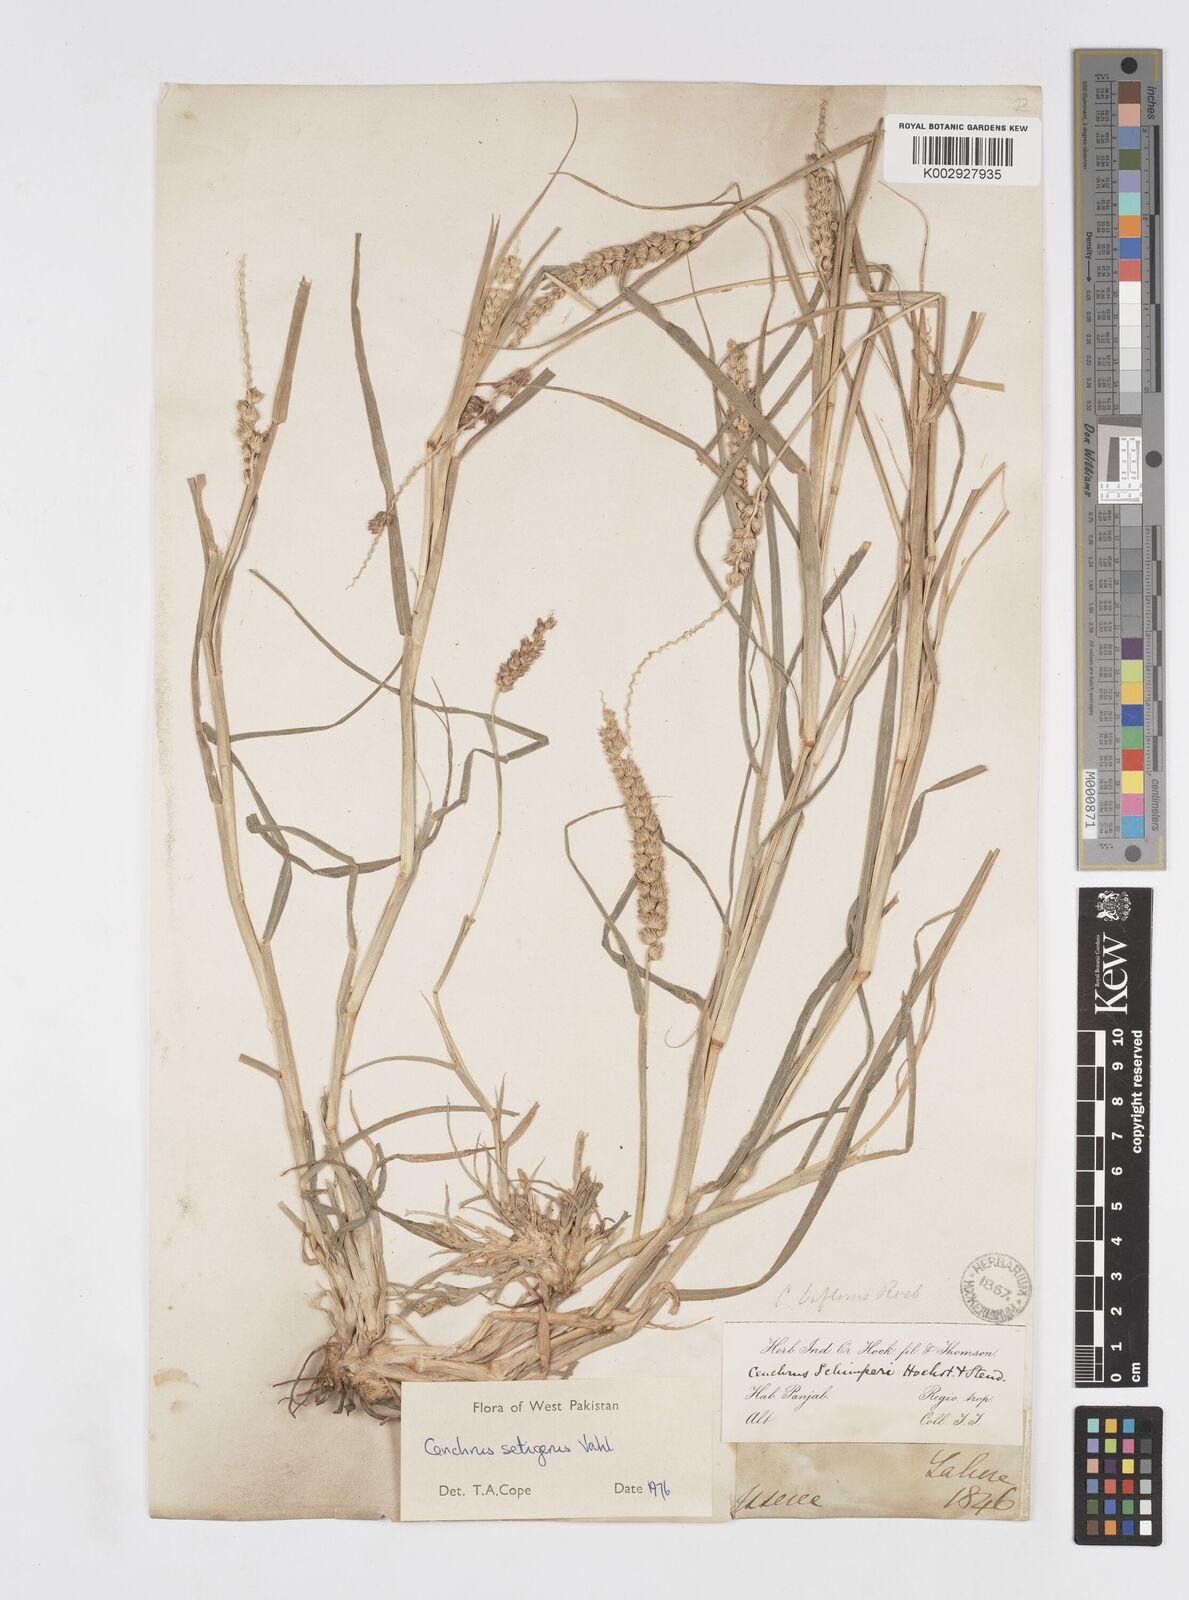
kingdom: Plantae
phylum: Tracheophyta
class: Liliopsida
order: Poales
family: Poaceae
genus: Cenchrus
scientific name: Cenchrus setigerus
